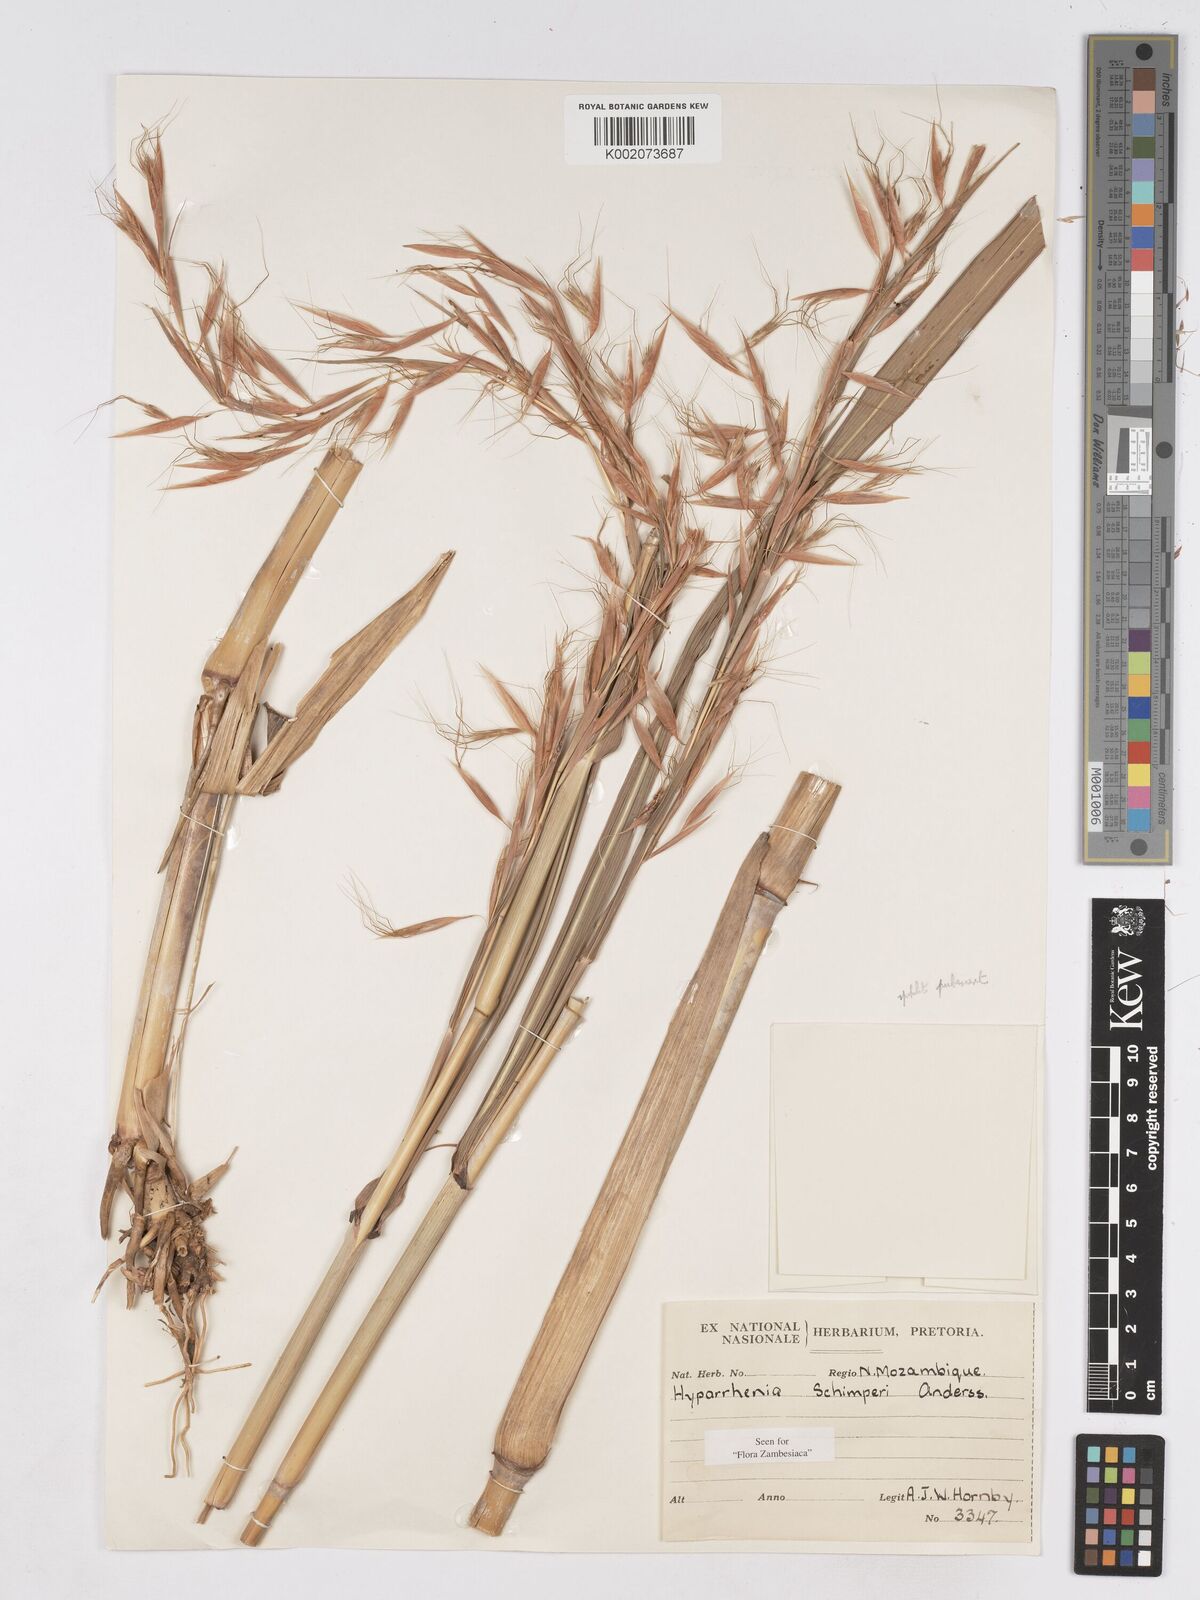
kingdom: Plantae
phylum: Tracheophyta
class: Liliopsida
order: Poales
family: Poaceae
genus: Hyparrhenia
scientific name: Hyparrhenia schimperi
